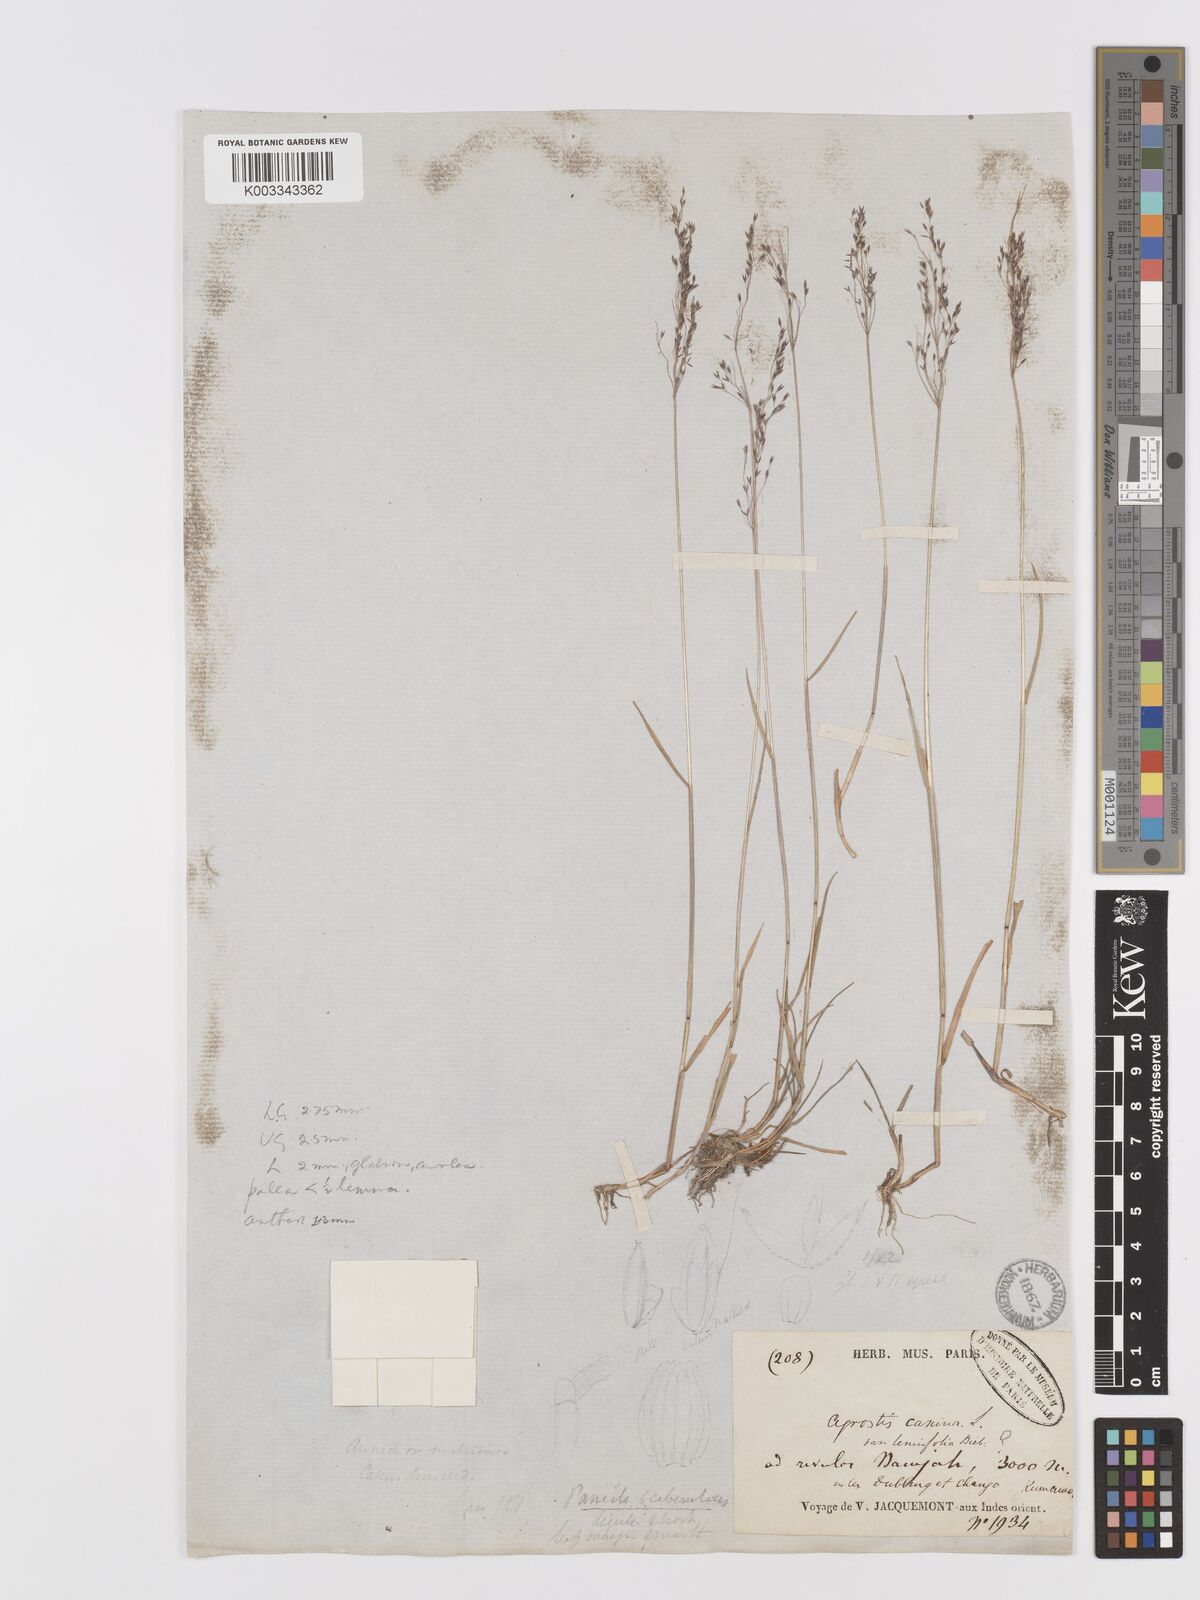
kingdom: Plantae
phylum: Tracheophyta
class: Liliopsida
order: Poales
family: Poaceae
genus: Agrostis
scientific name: Agrostis
